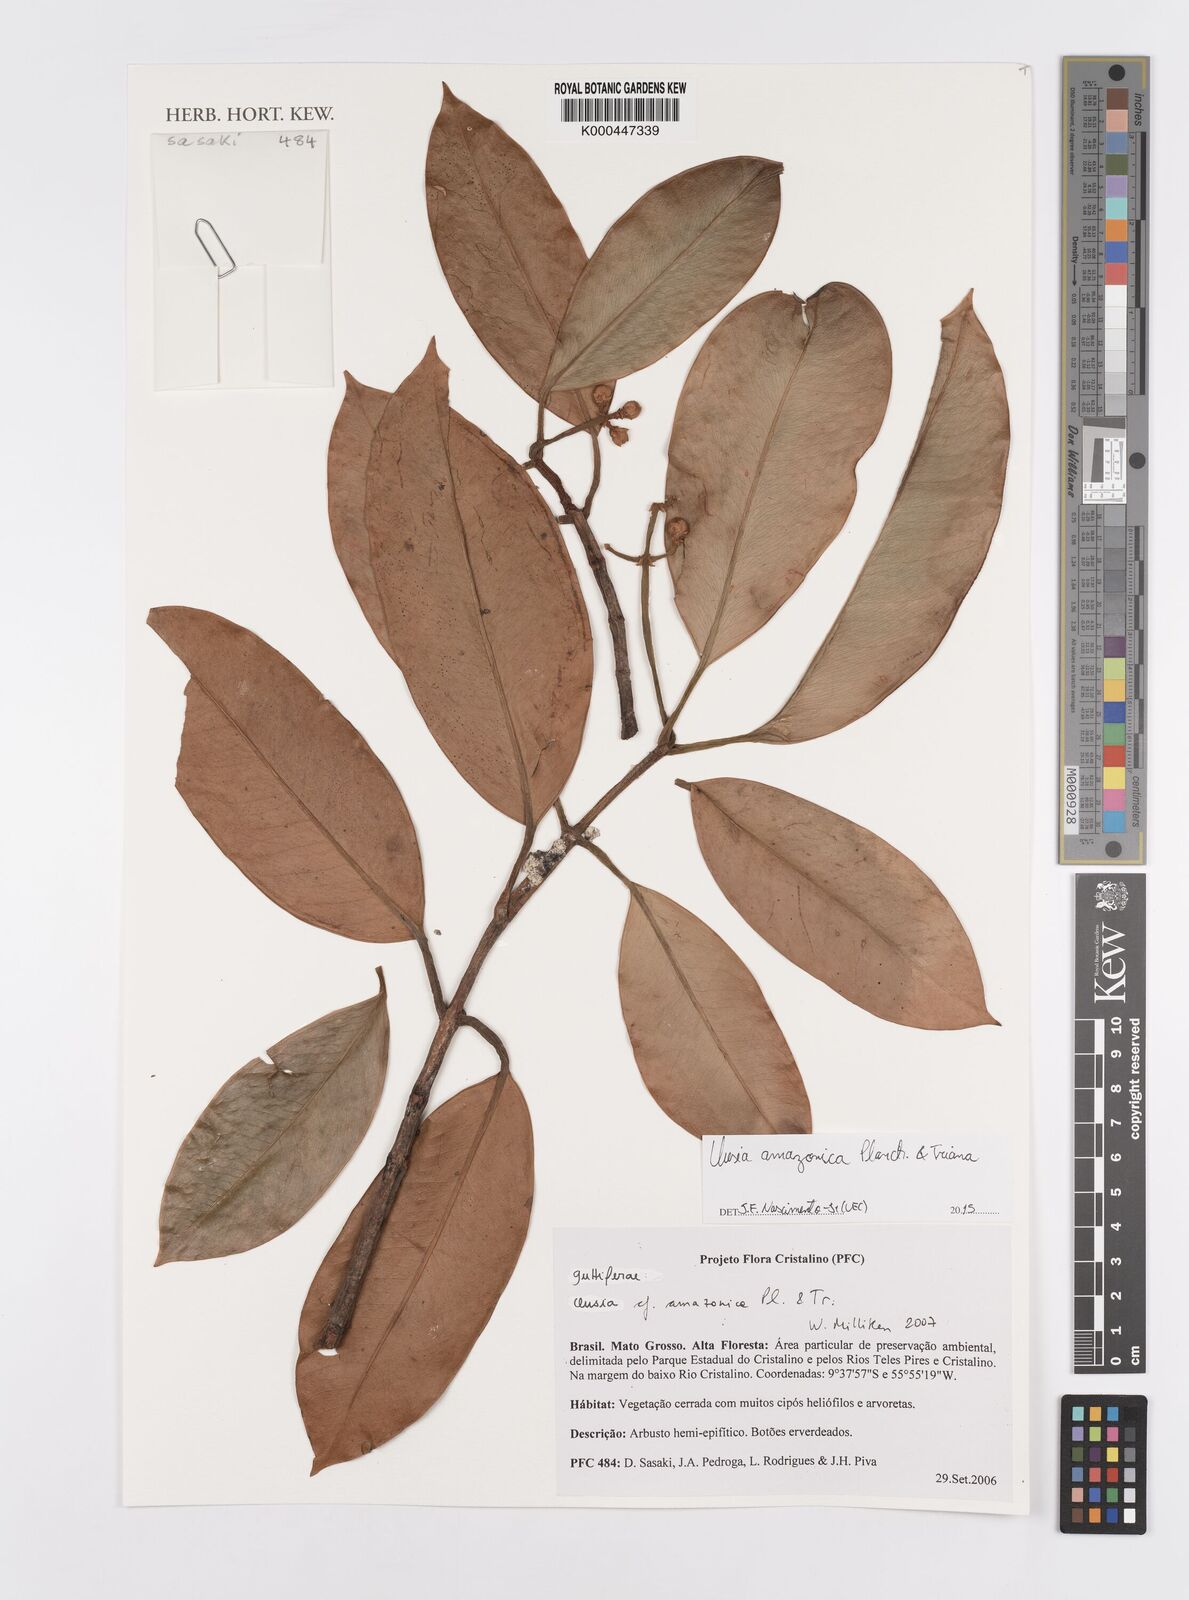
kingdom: Plantae
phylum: Tracheophyta
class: Magnoliopsida
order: Malpighiales
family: Clusiaceae
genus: Clusia
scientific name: Clusia amazonica
